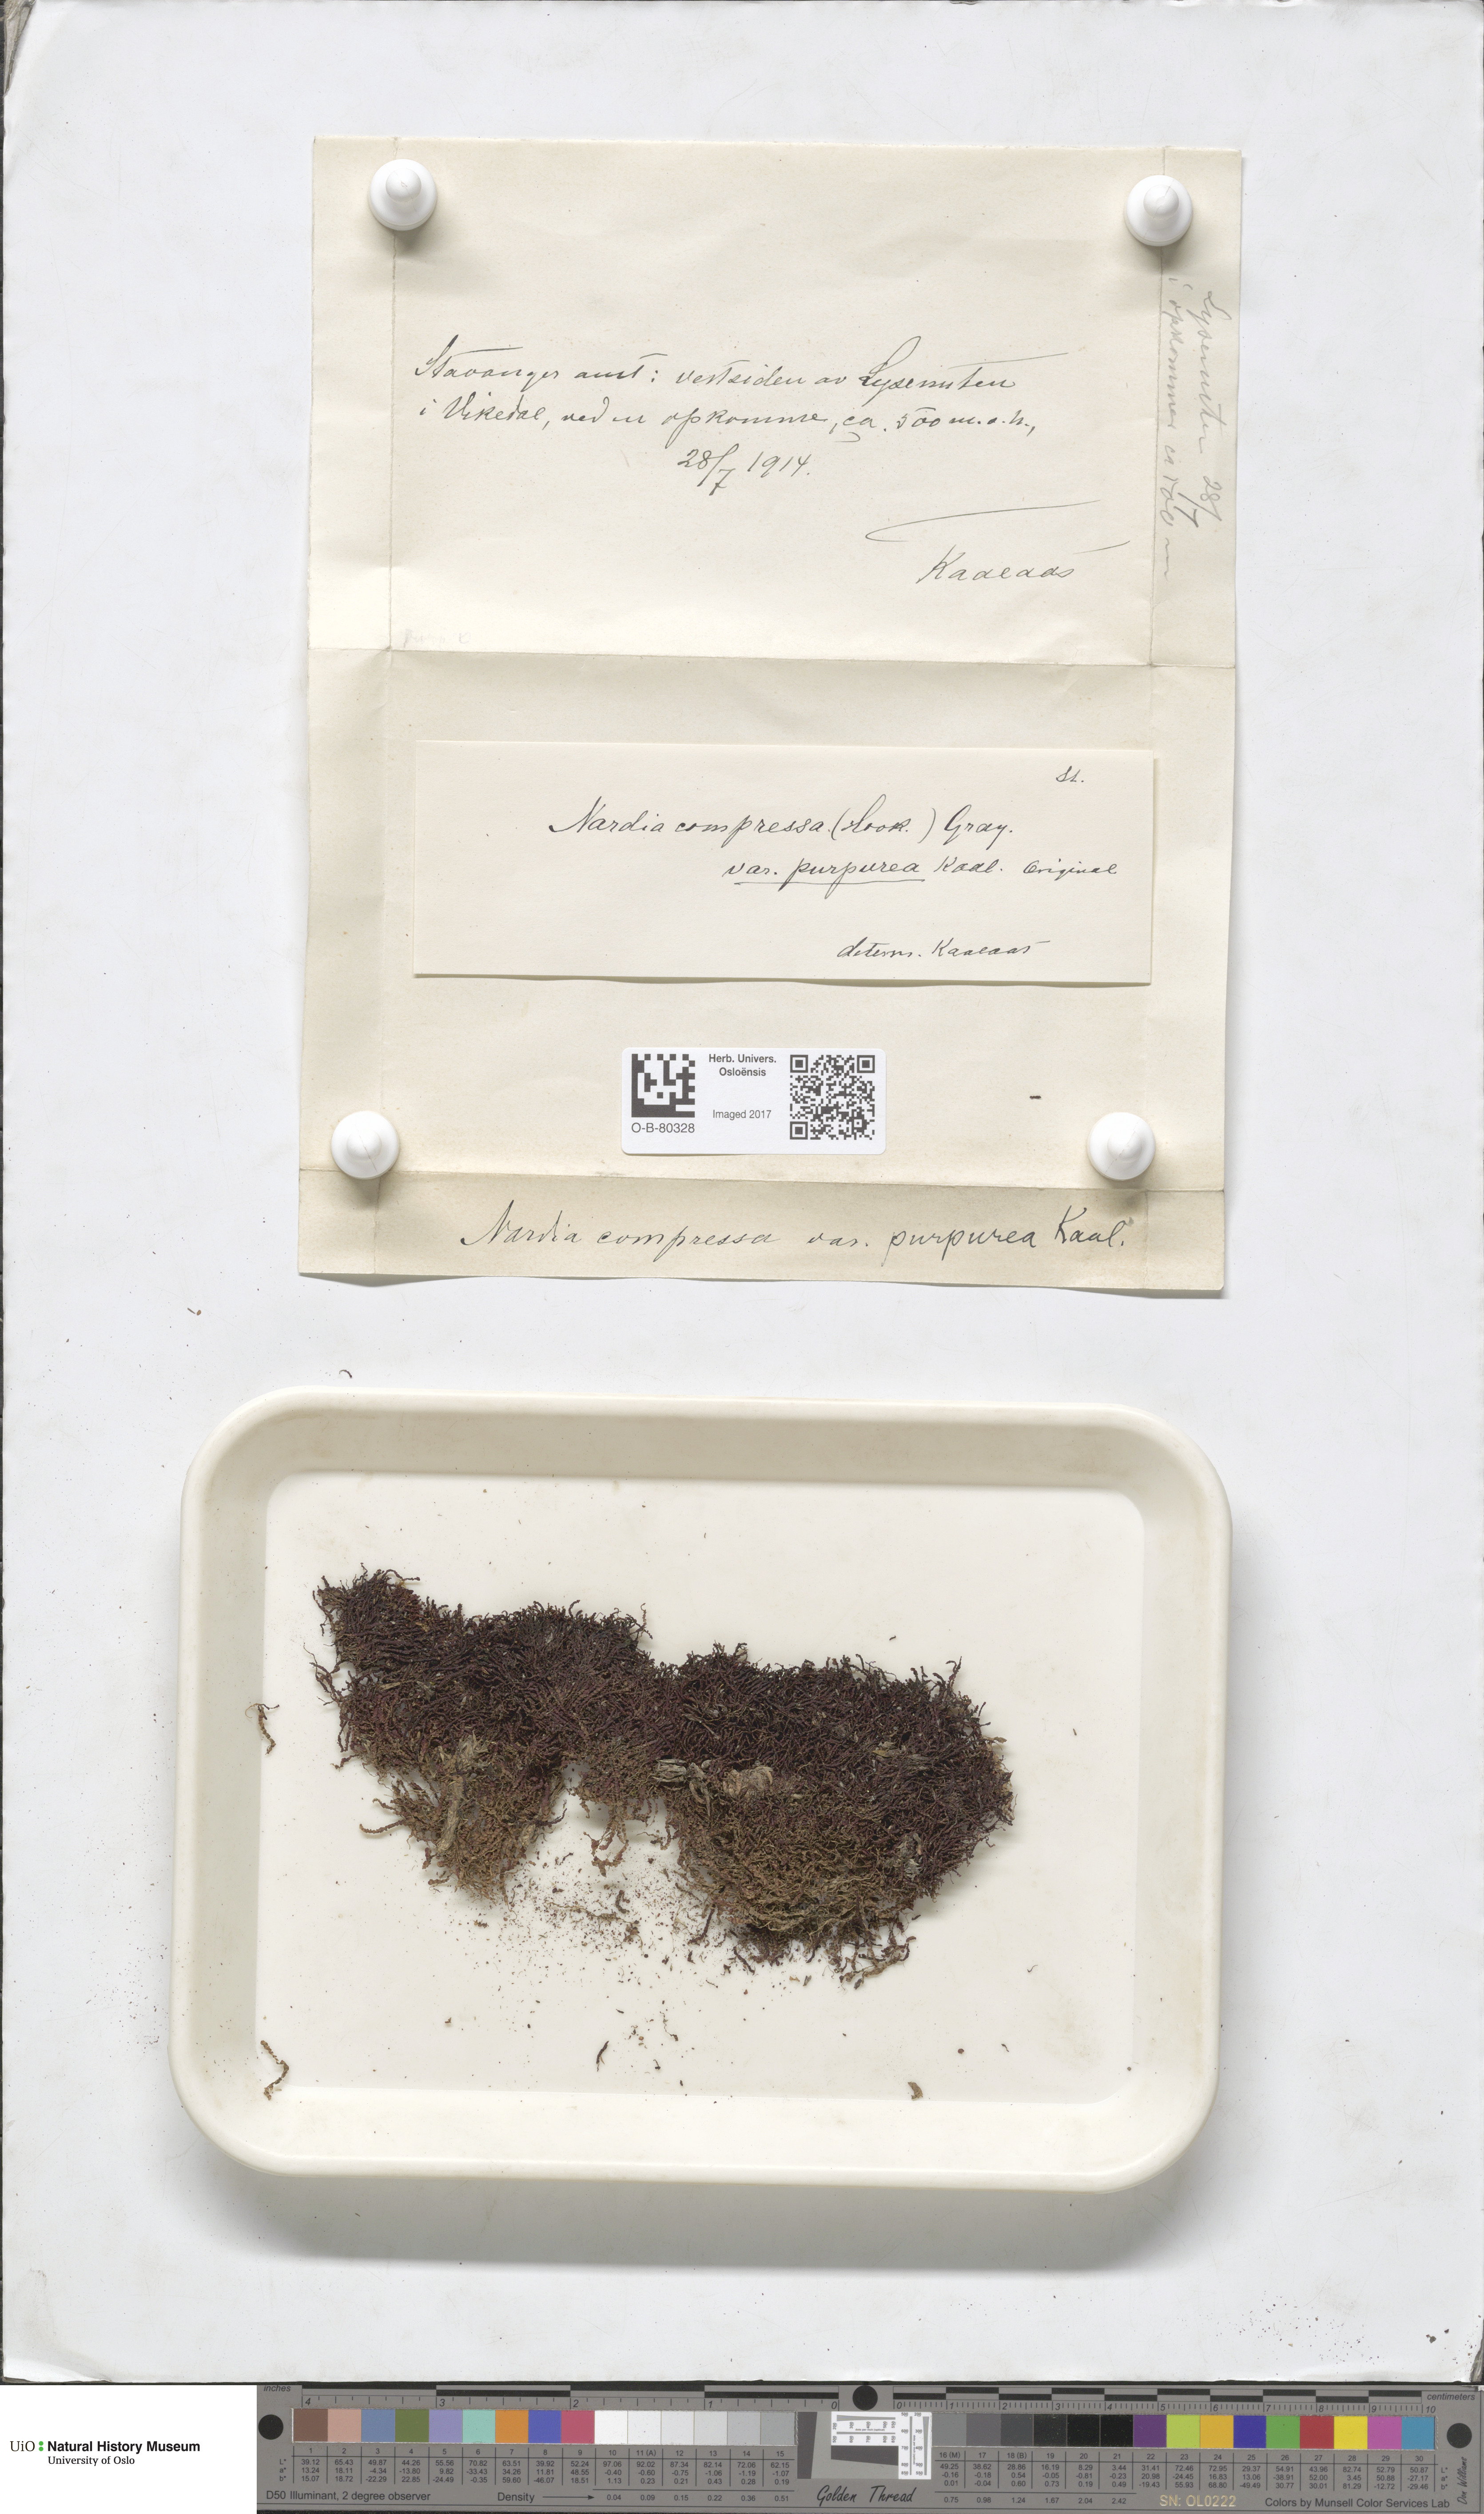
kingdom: Plantae
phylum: Marchantiophyta
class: Jungermanniopsida
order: Jungermanniales
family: Gymnomitriaceae
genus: Nardia
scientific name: Nardia compressa
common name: Compressed flapwort
